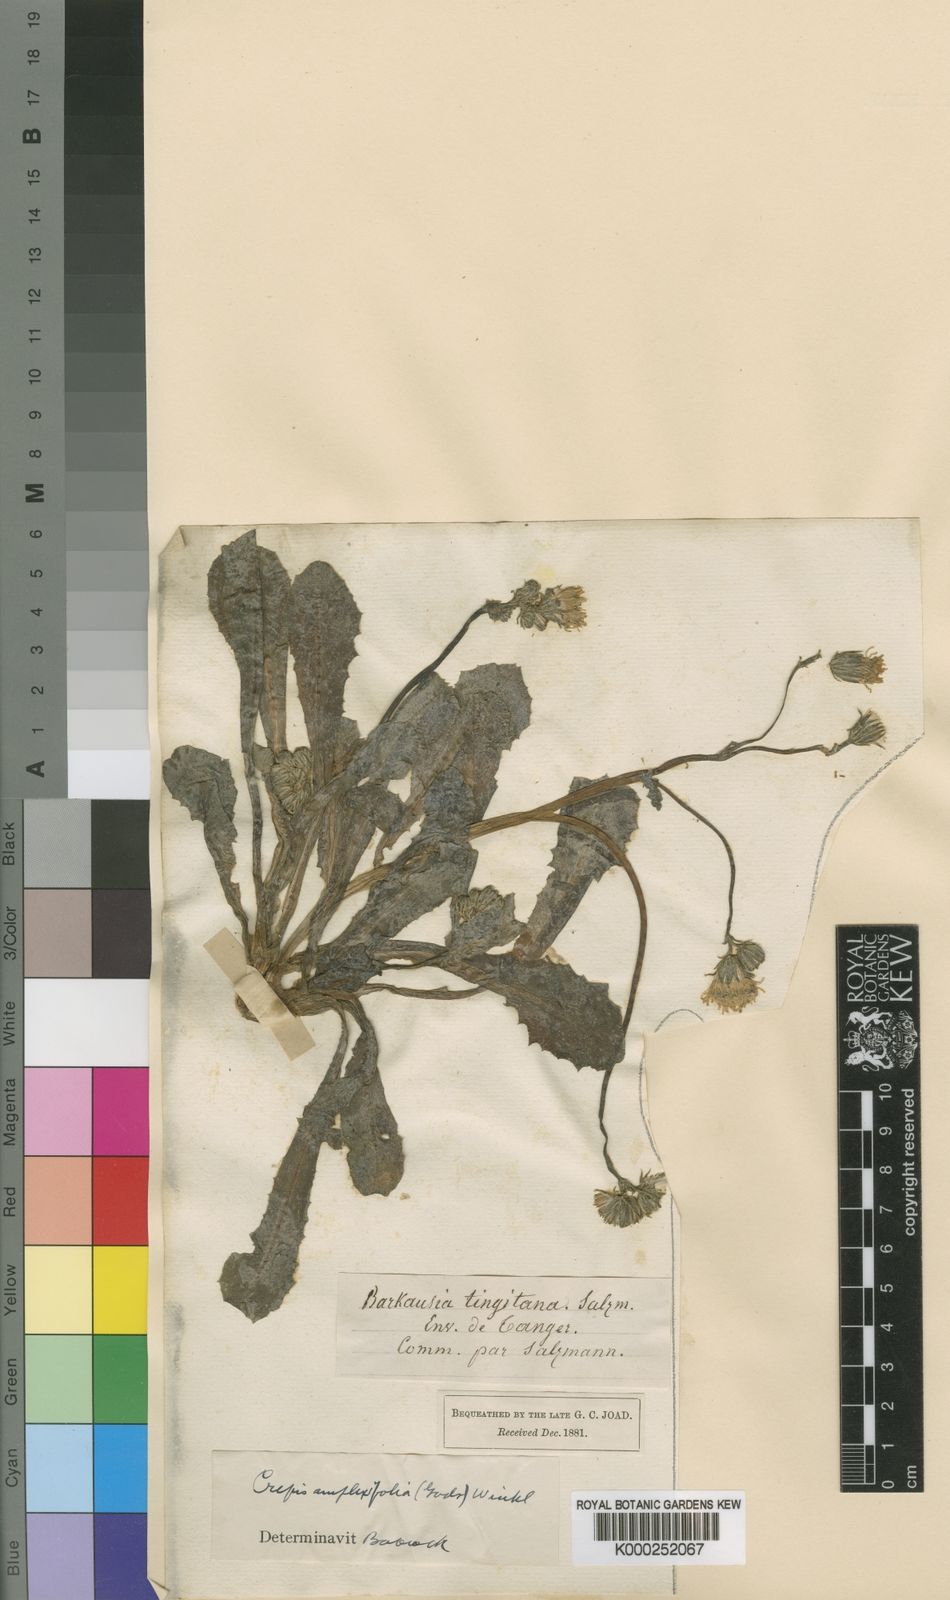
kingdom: Plantae
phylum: Tracheophyta
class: Magnoliopsida
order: Asterales
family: Asteraceae
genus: Crepis
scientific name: Crepis amplexifolia
